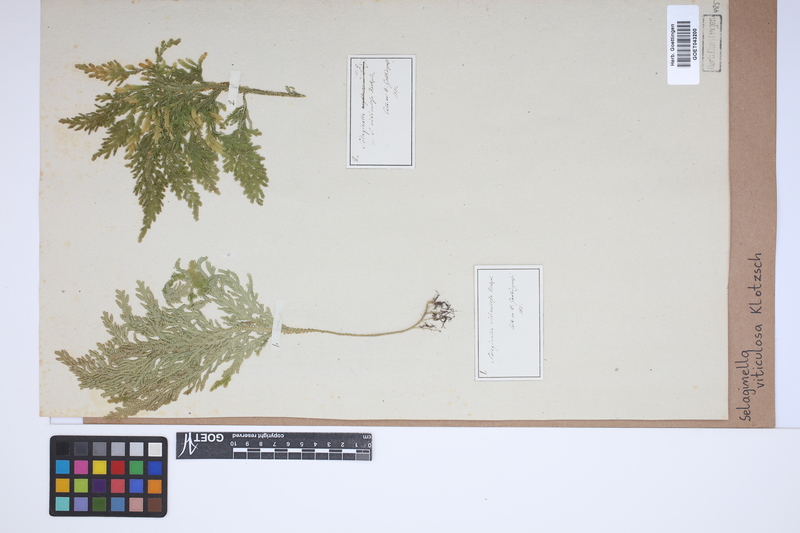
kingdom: Plantae
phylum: Tracheophyta
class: Lycopodiopsida
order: Selaginellales
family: Selaginellaceae
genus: Selaginella
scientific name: Selaginella viticulosa
